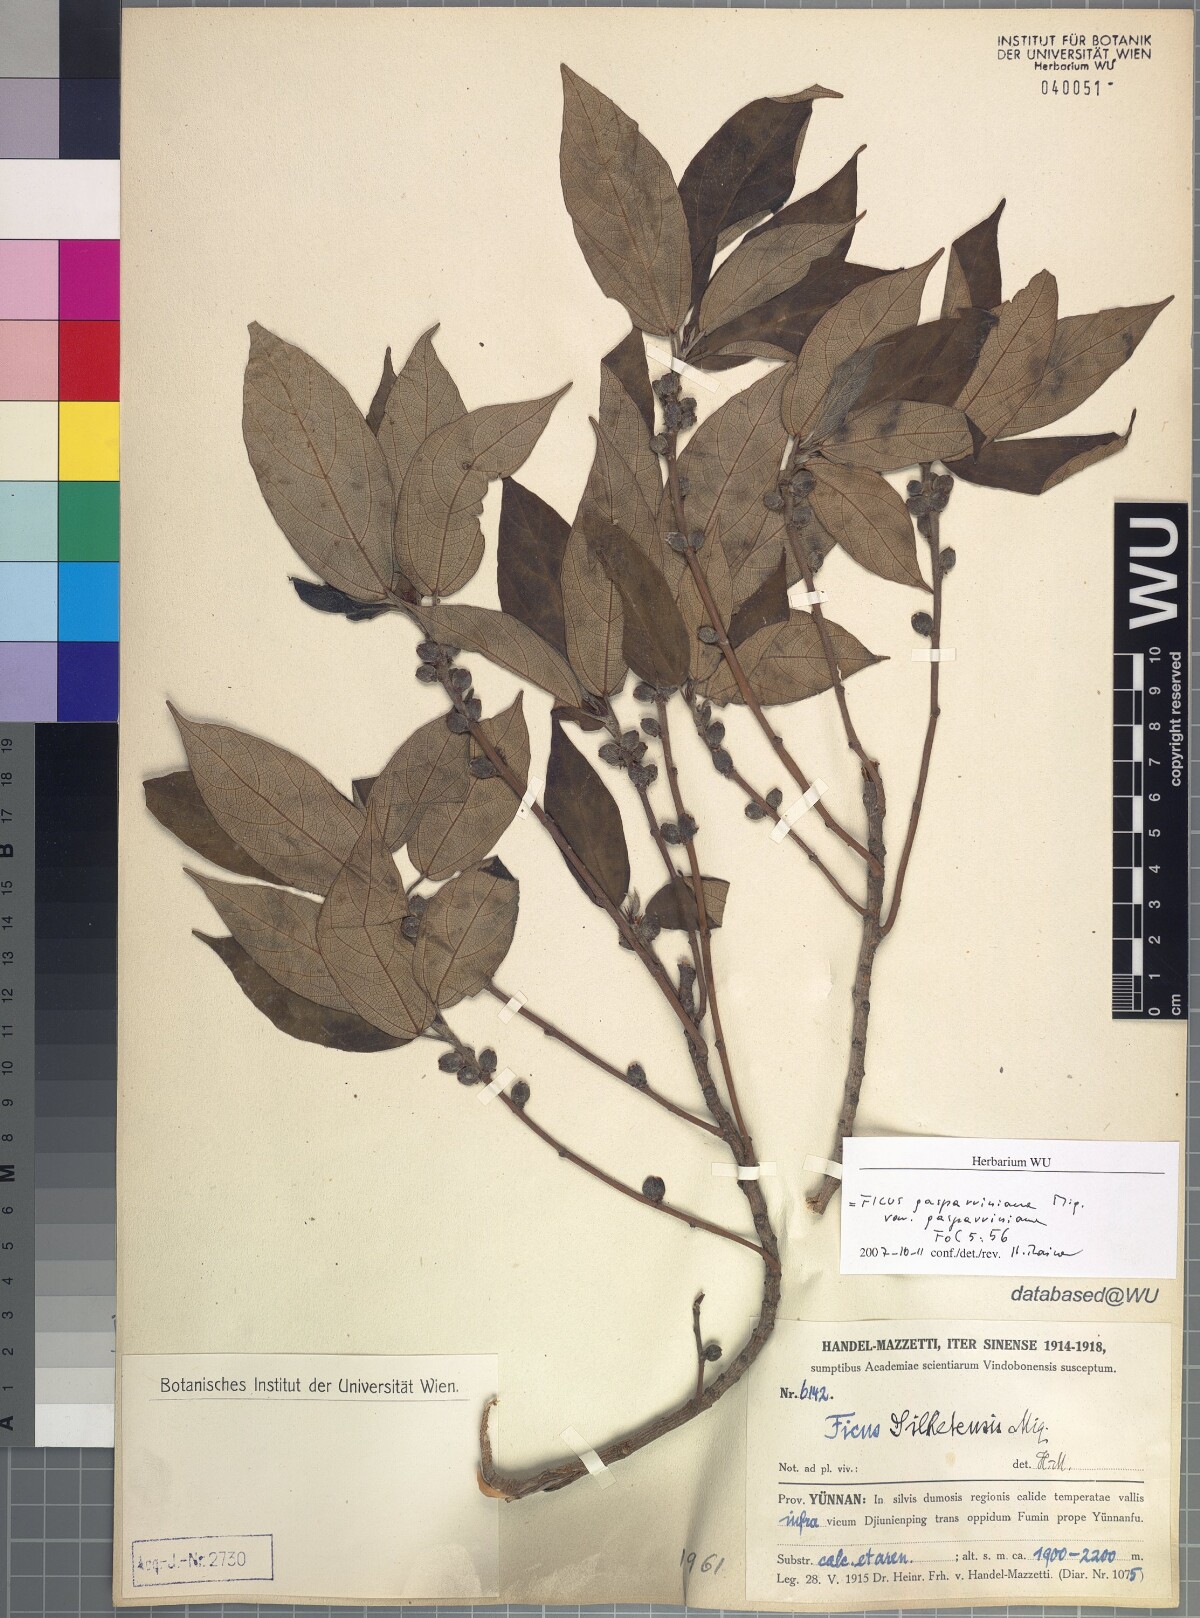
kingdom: Plantae
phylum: Tracheophyta
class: Magnoliopsida
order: Rosales
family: Moraceae
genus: Ficus
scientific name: Ficus neriifolia
